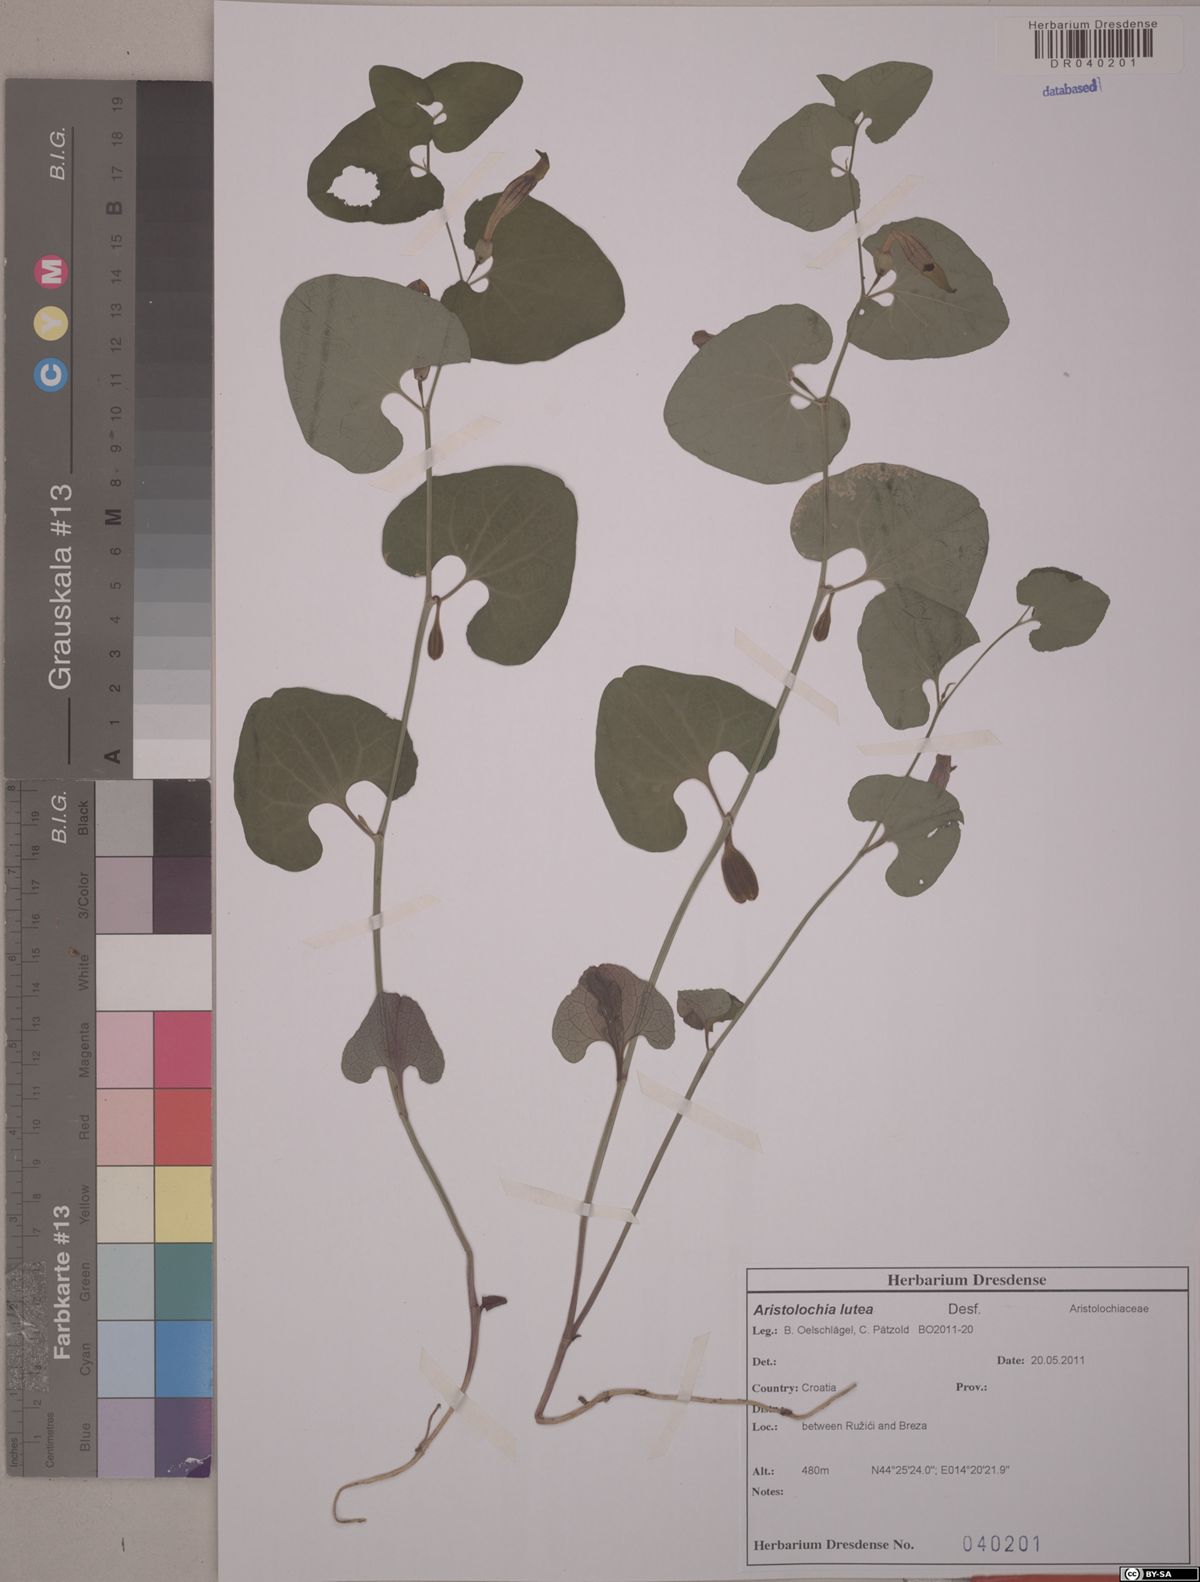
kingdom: Plantae
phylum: Tracheophyta
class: Magnoliopsida
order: Piperales
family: Aristolochiaceae
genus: Aristolochia
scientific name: Aristolochia lutea
